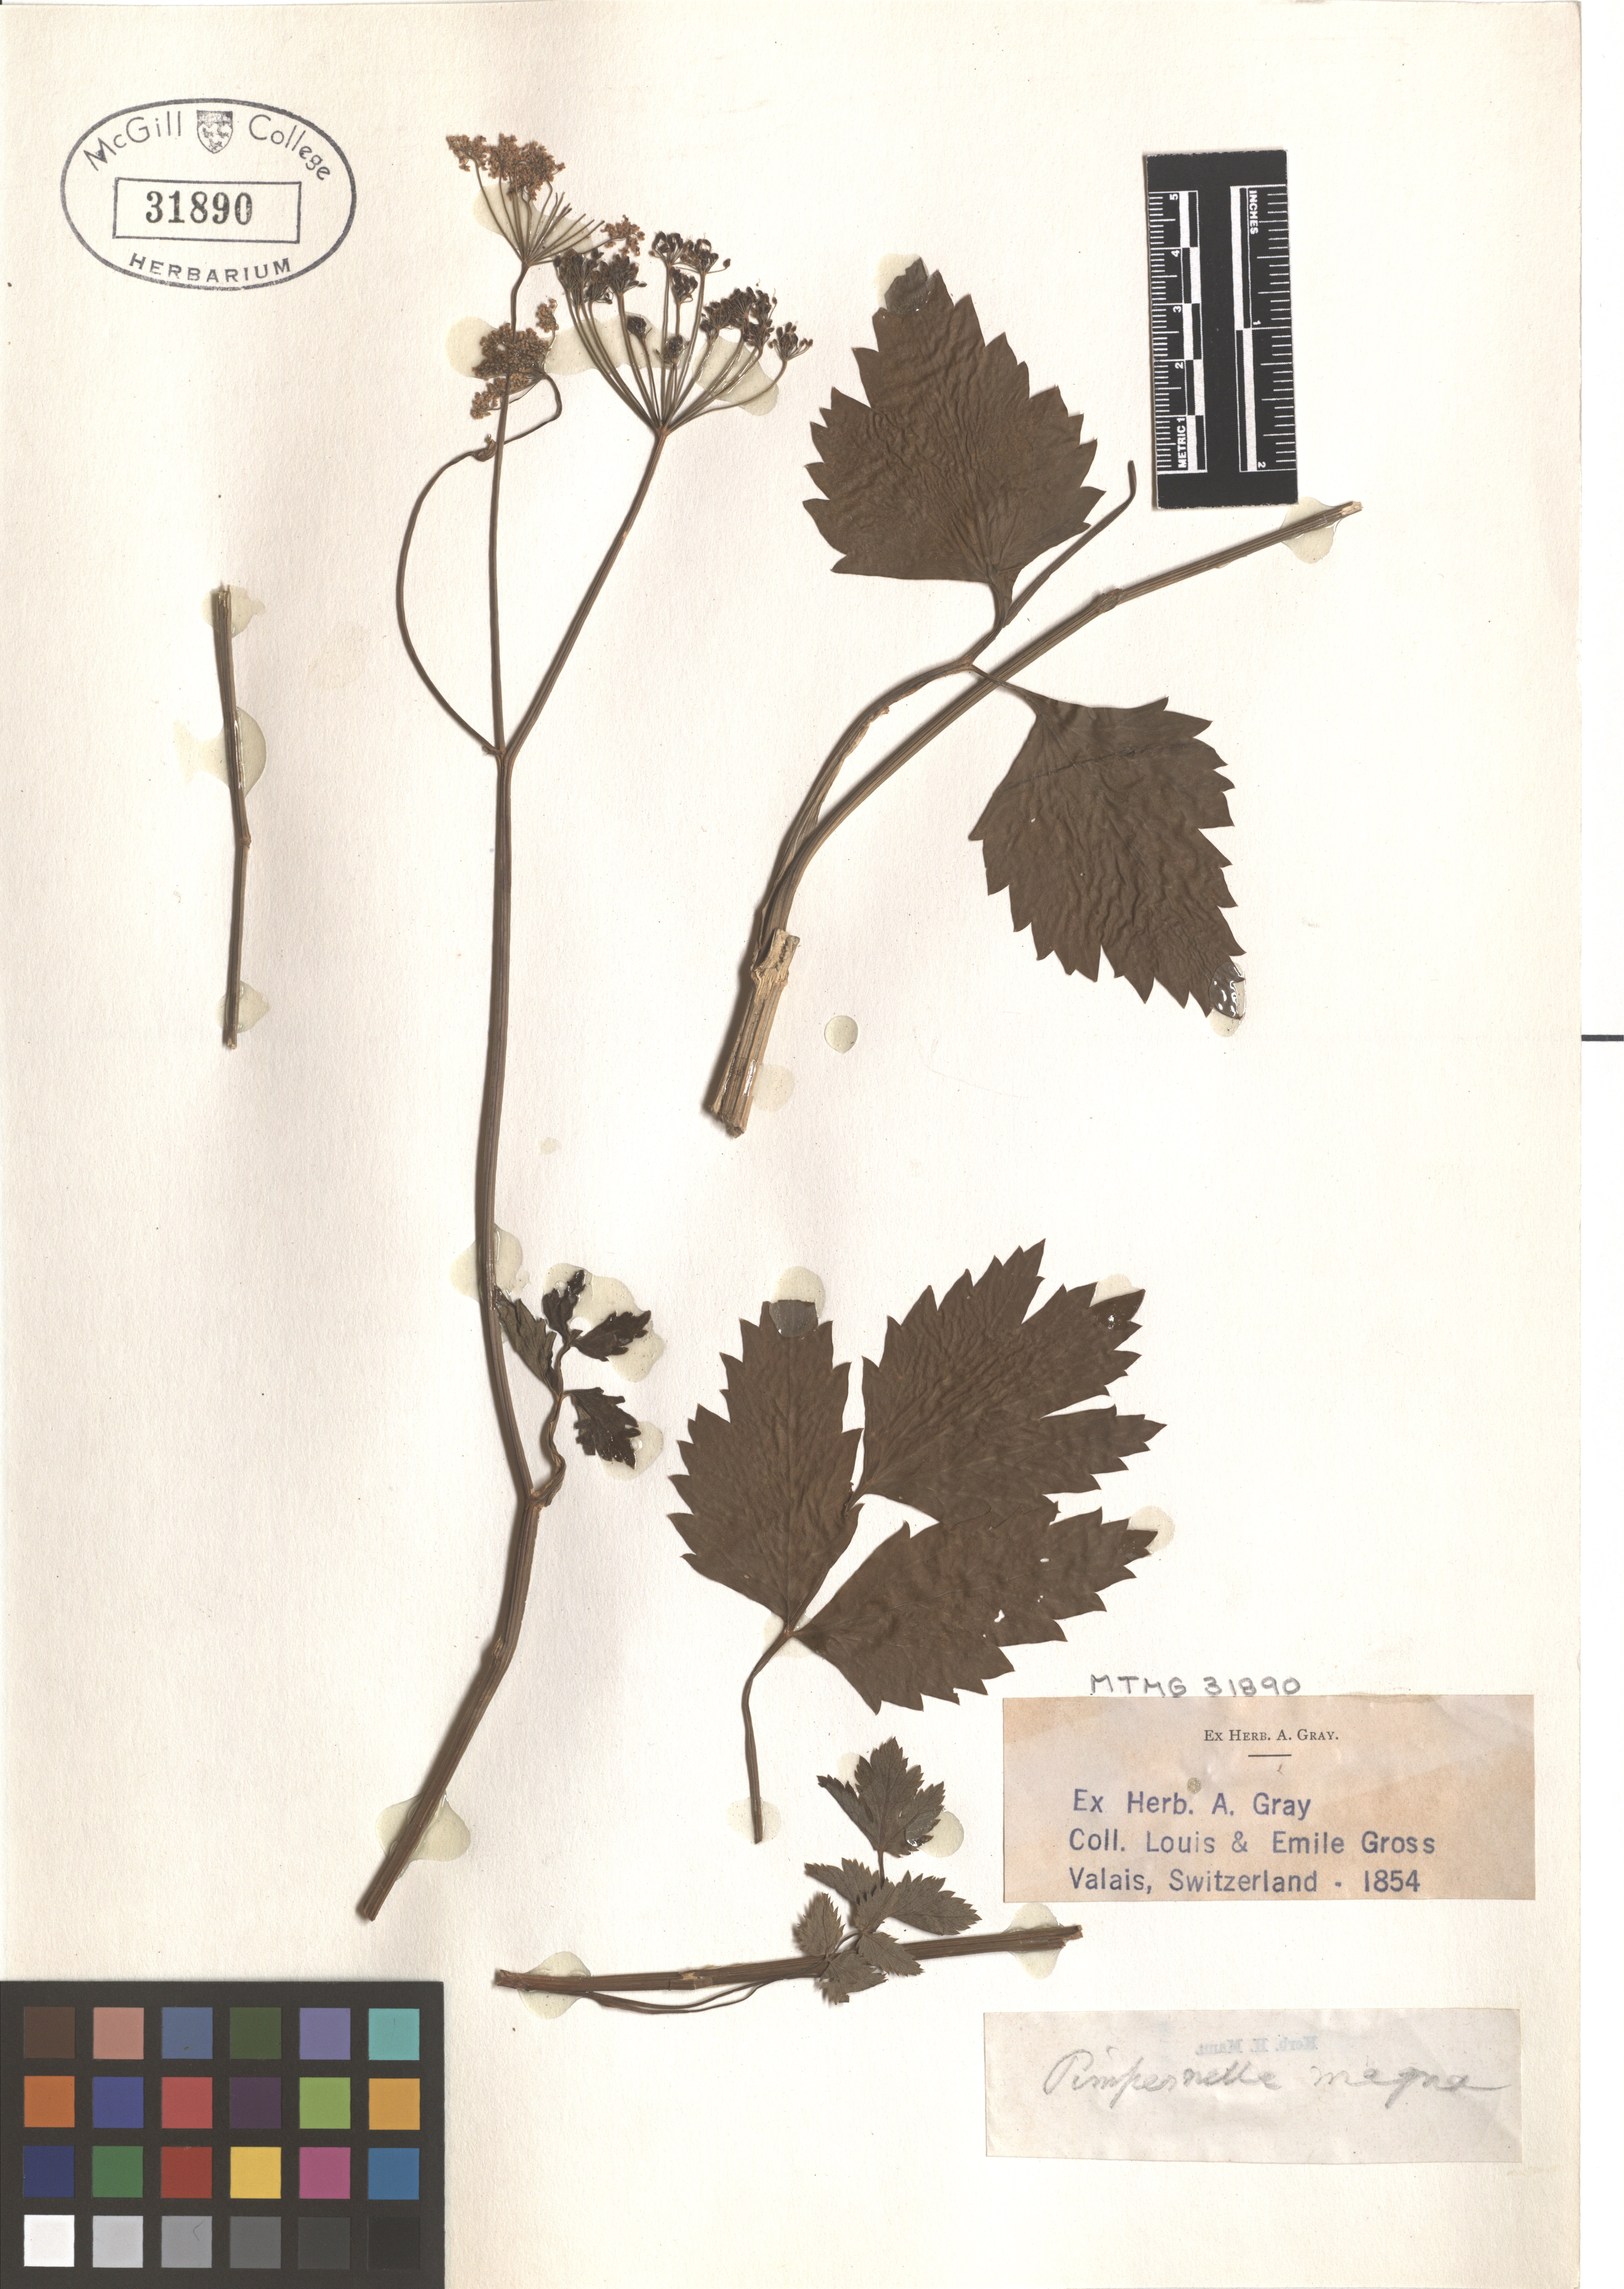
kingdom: Plantae
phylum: Tracheophyta
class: Magnoliopsida
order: Apiales
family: Apiaceae
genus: Pimpinella
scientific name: Pimpinella major
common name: Greater burnet-saxifrage
